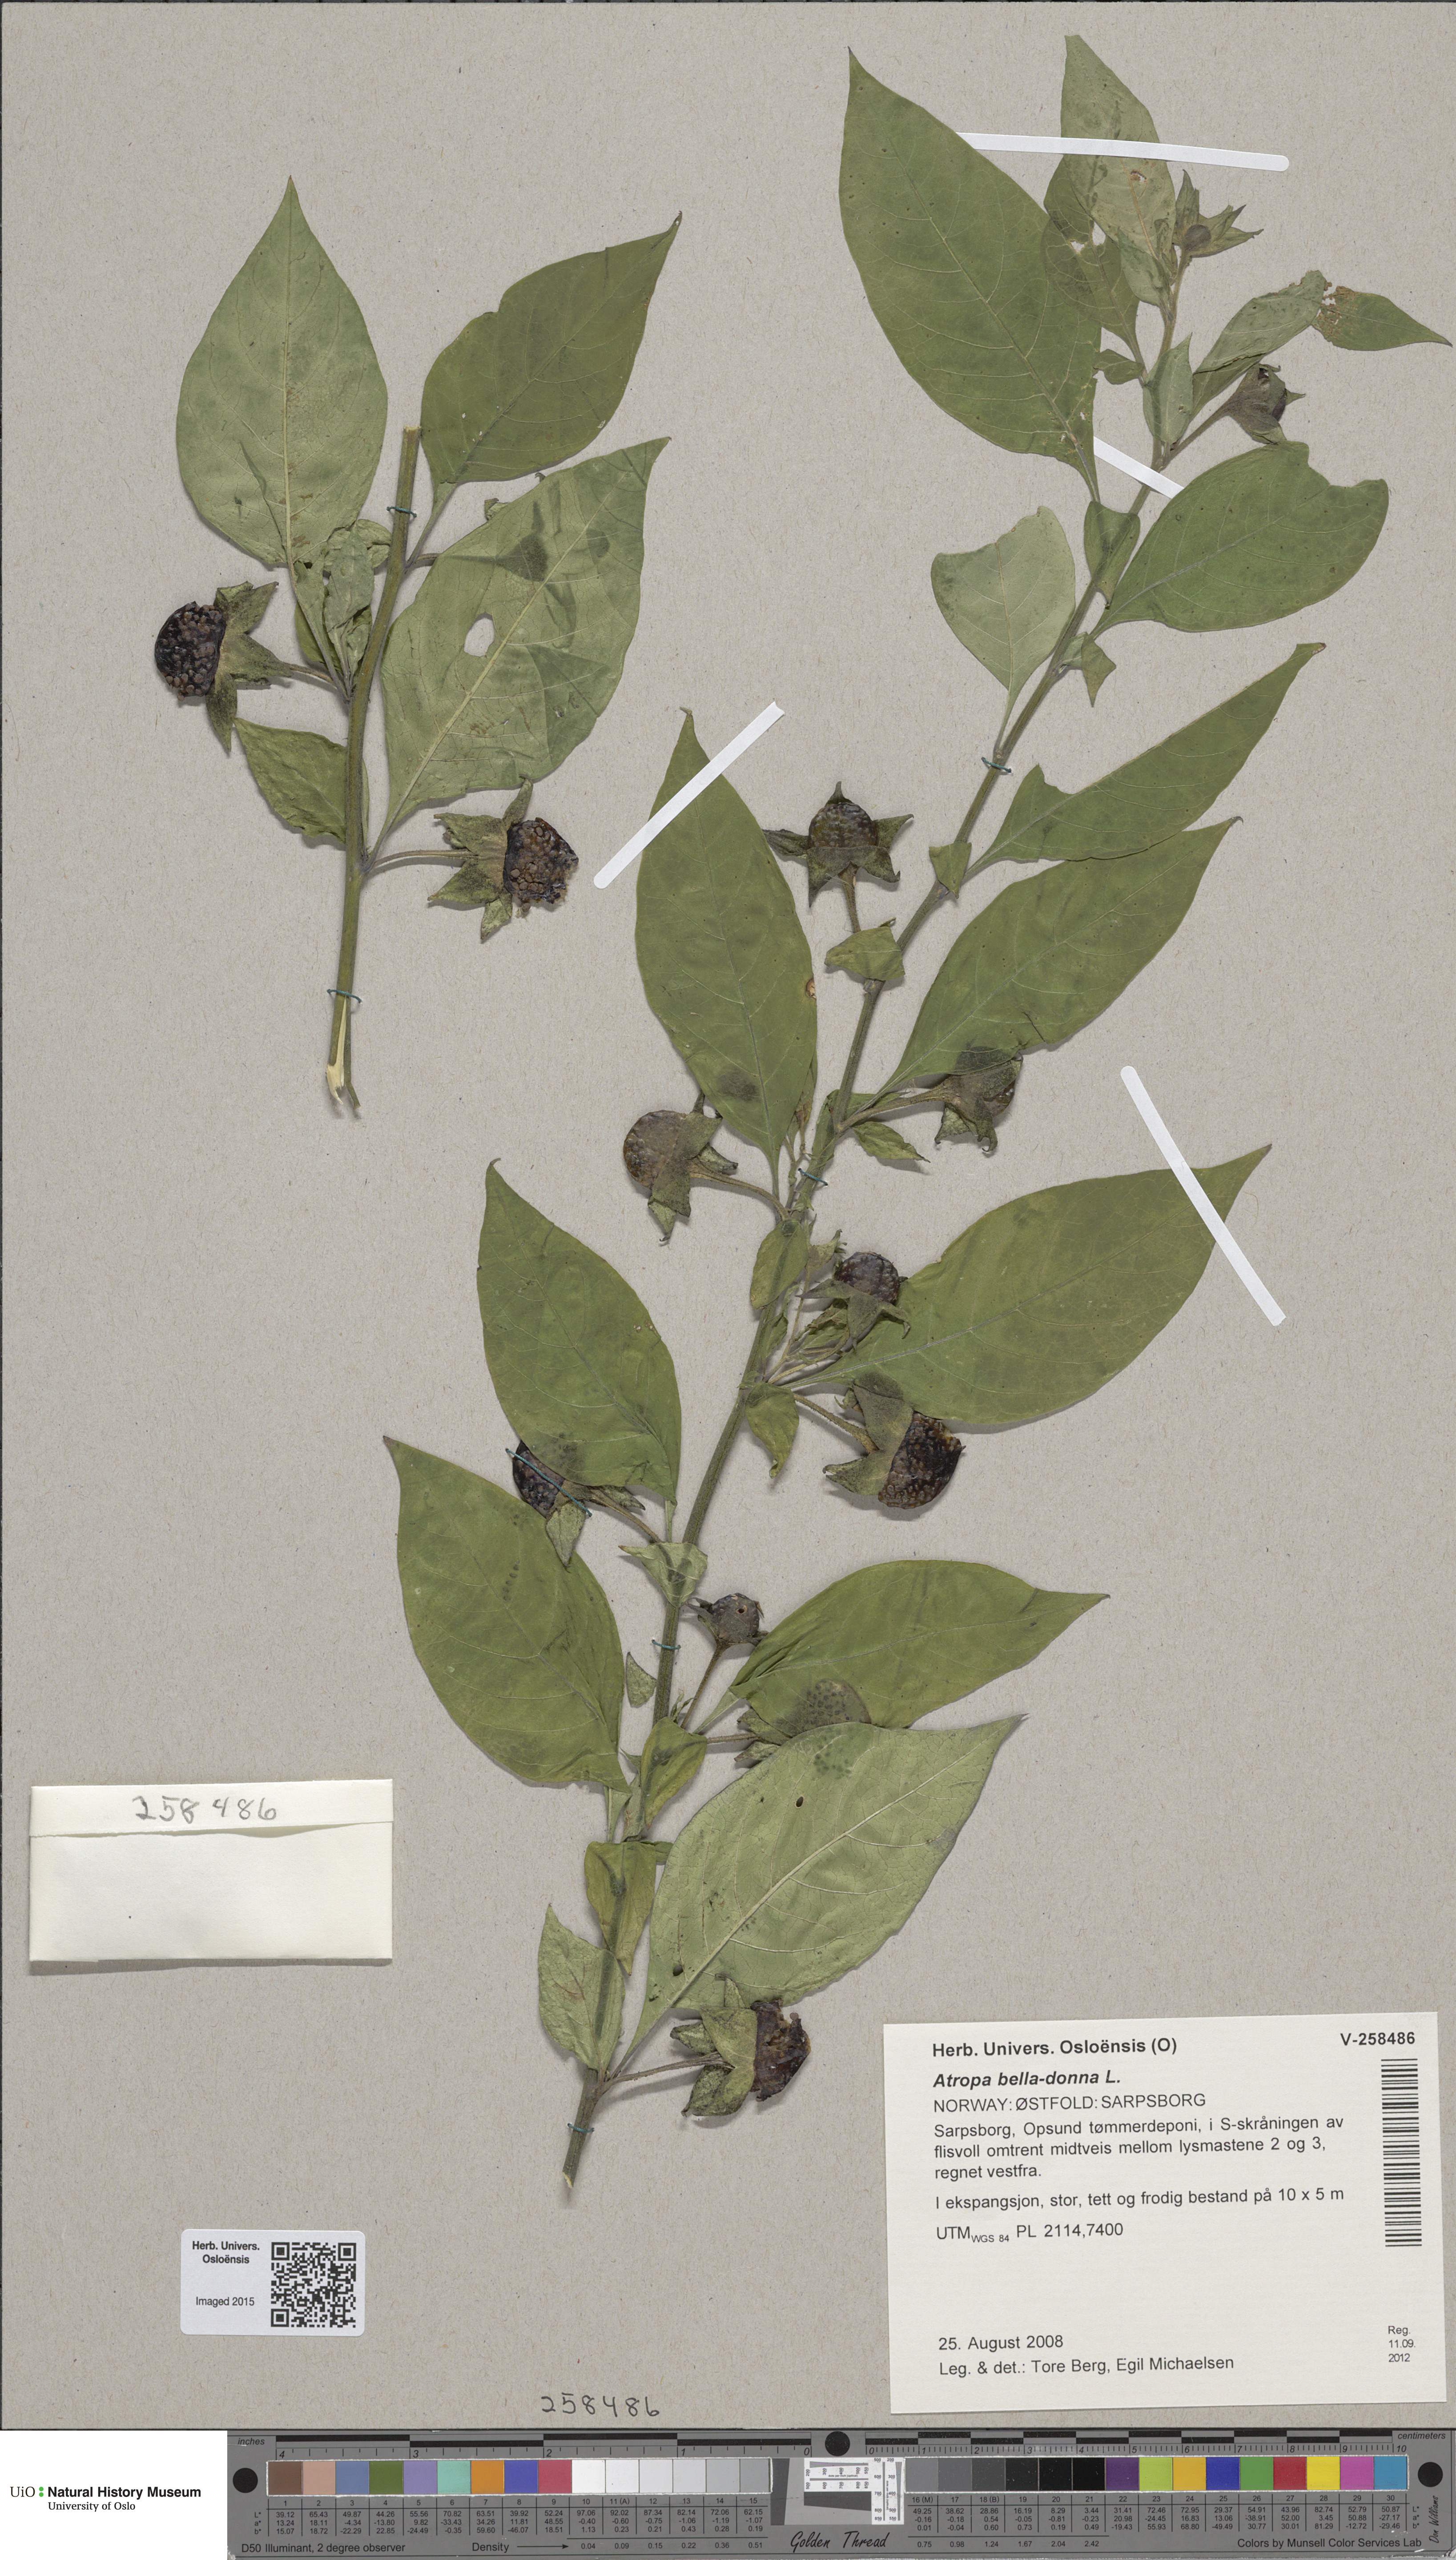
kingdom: Plantae
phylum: Tracheophyta
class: Magnoliopsida
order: Solanales
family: Solanaceae
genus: Atropa
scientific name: Atropa belladonna
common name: Deadly nightshade
